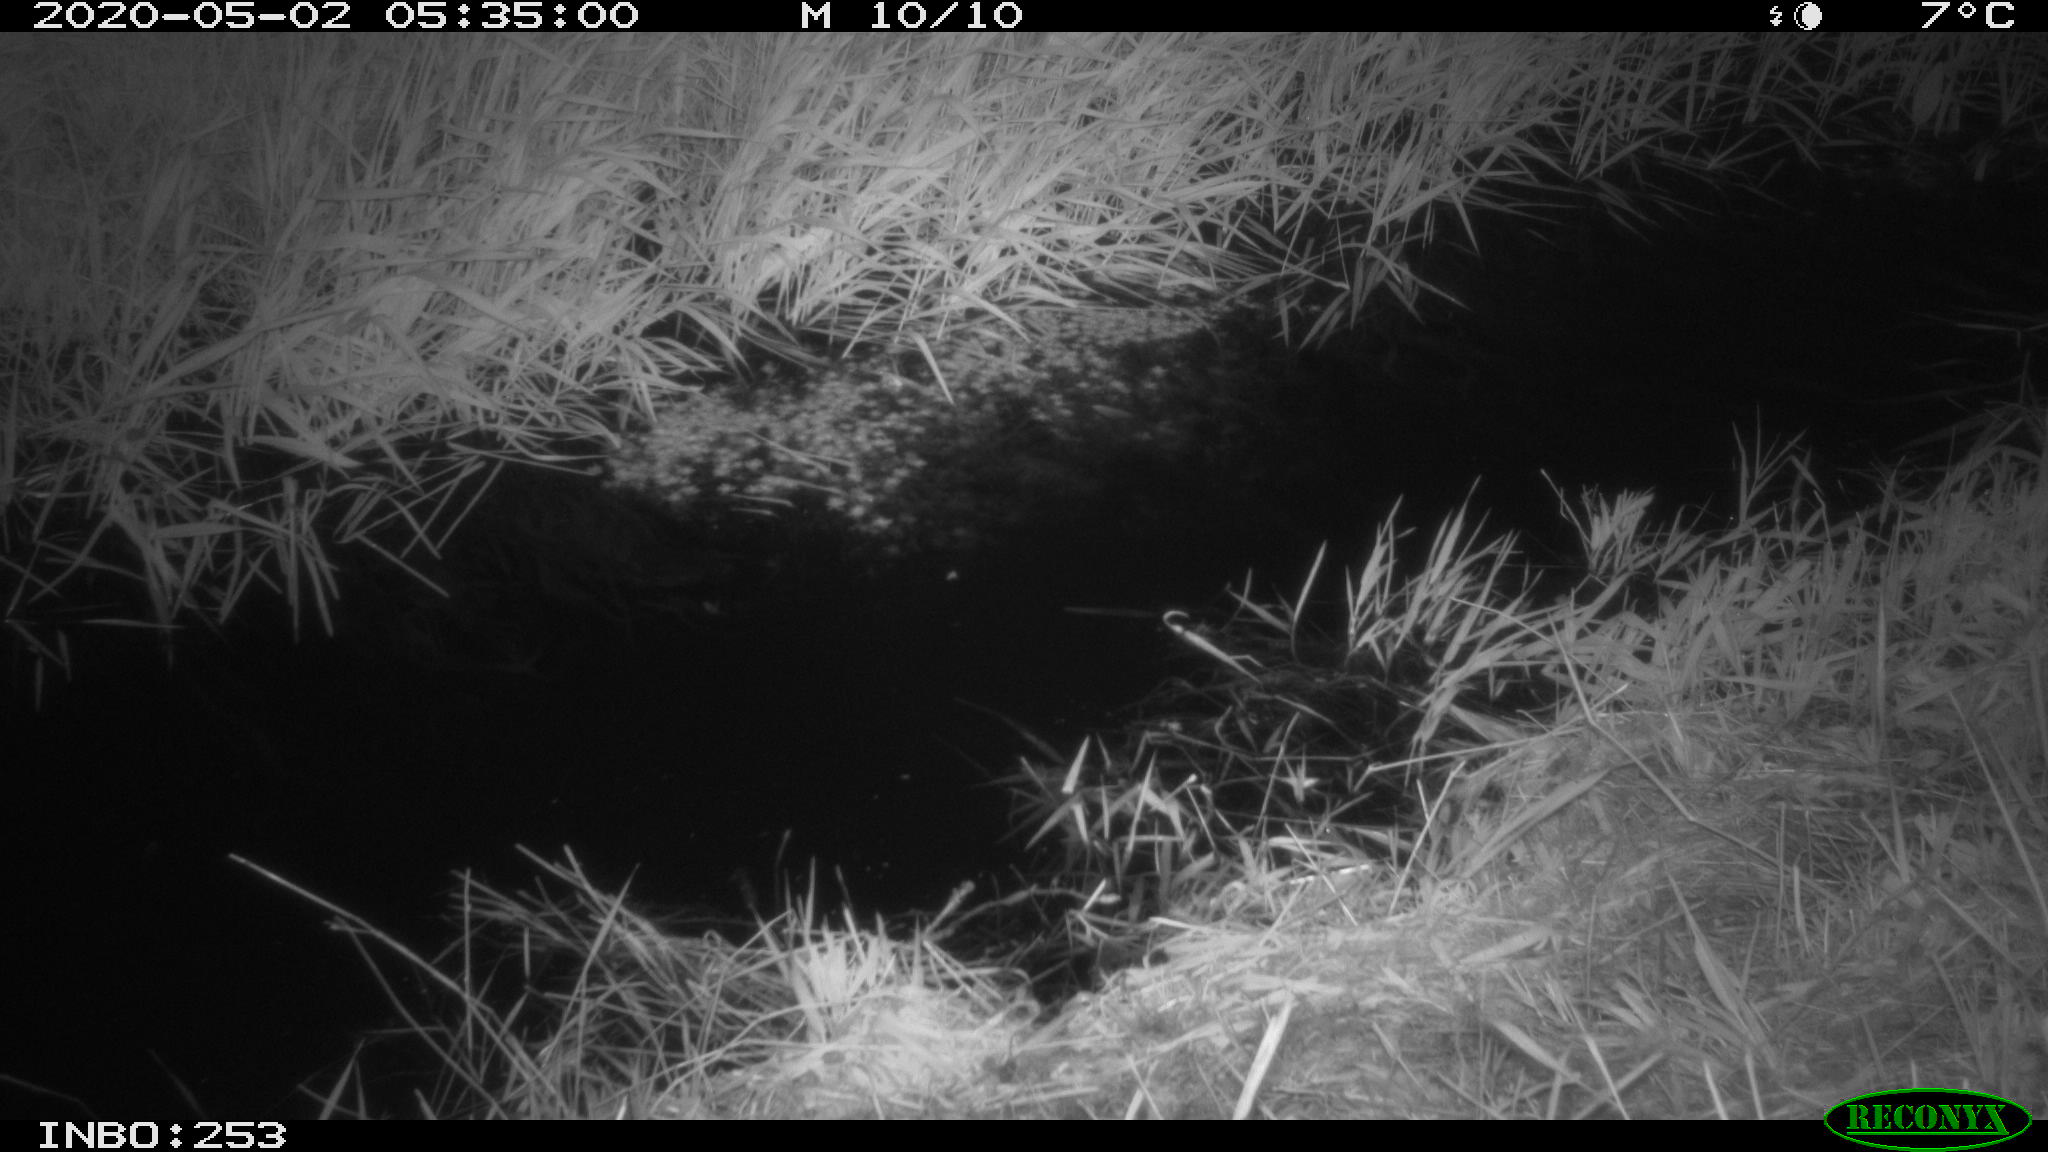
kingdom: Animalia
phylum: Chordata
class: Aves
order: Anseriformes
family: Anatidae
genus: Anas
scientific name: Anas platyrhynchos
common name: Mallard
